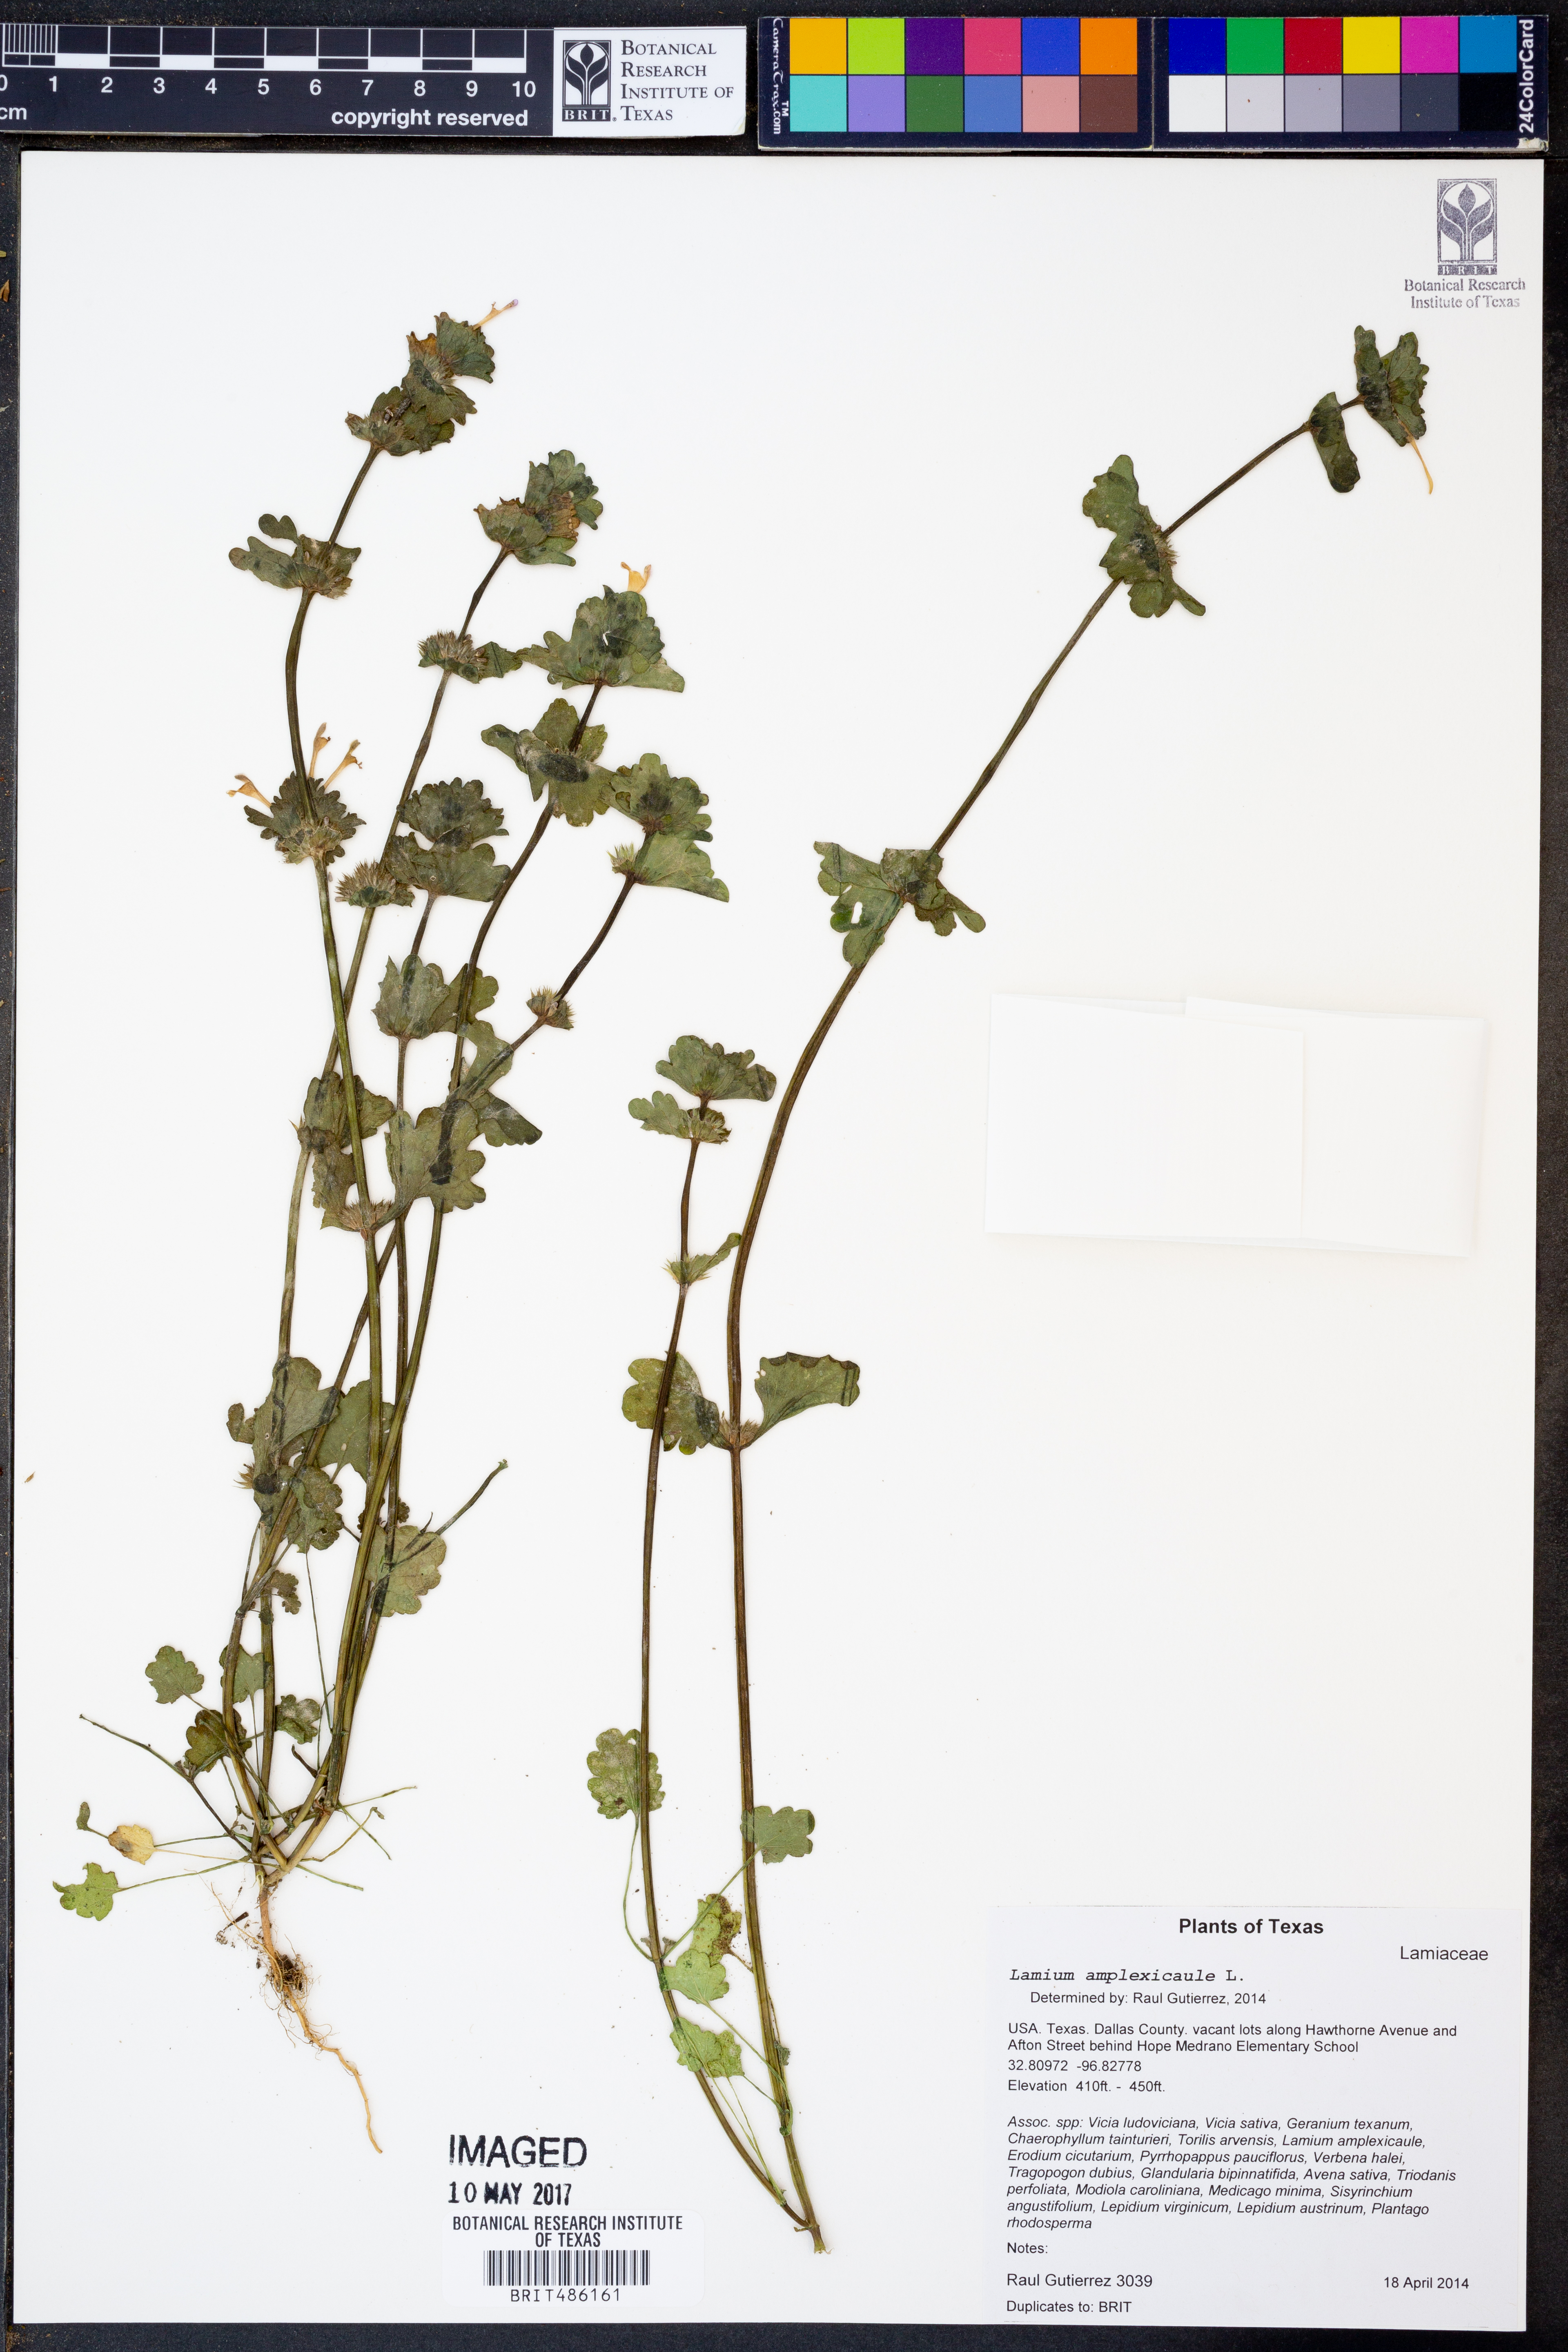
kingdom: Plantae
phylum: Tracheophyta
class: Magnoliopsida
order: Lamiales
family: Lamiaceae
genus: Lamium
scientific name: Lamium amplexicaule
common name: Henbit dead-nettle
